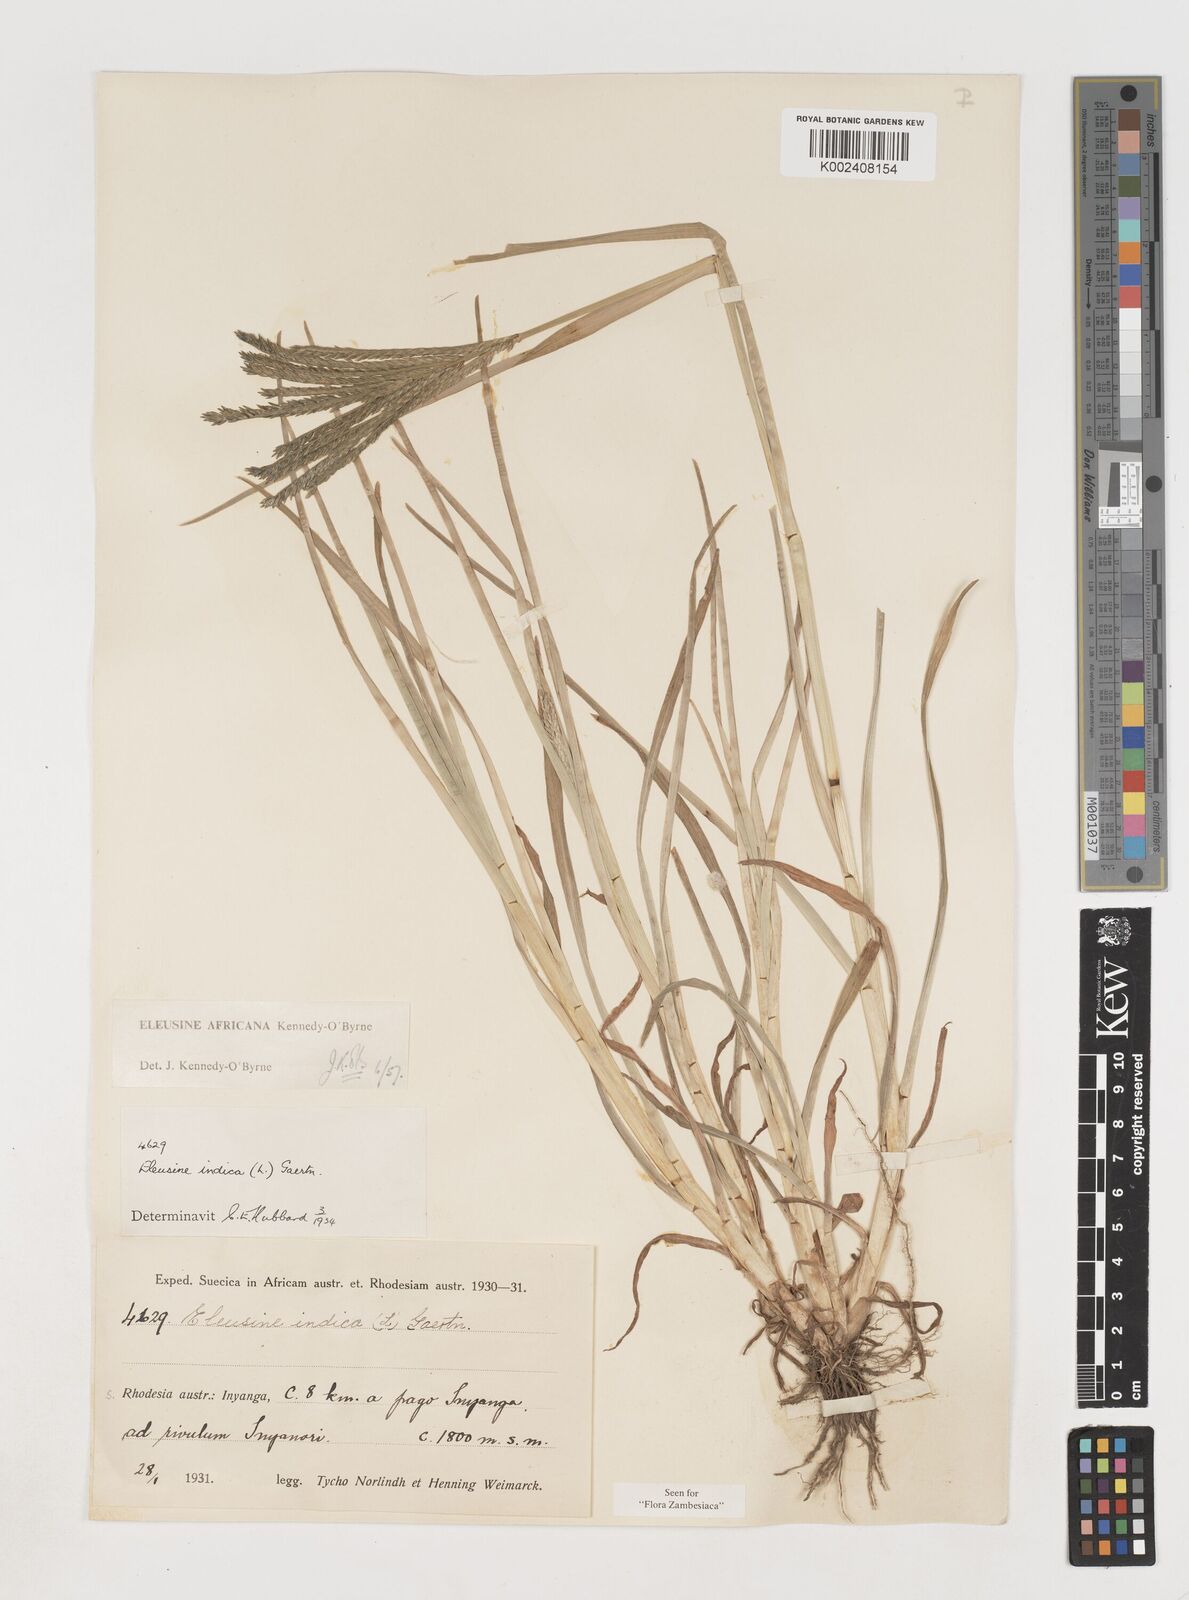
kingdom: Plantae
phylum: Tracheophyta
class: Liliopsida
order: Poales
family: Poaceae
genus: Eleusine
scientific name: Eleusine africana
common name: Wild african finger millet
